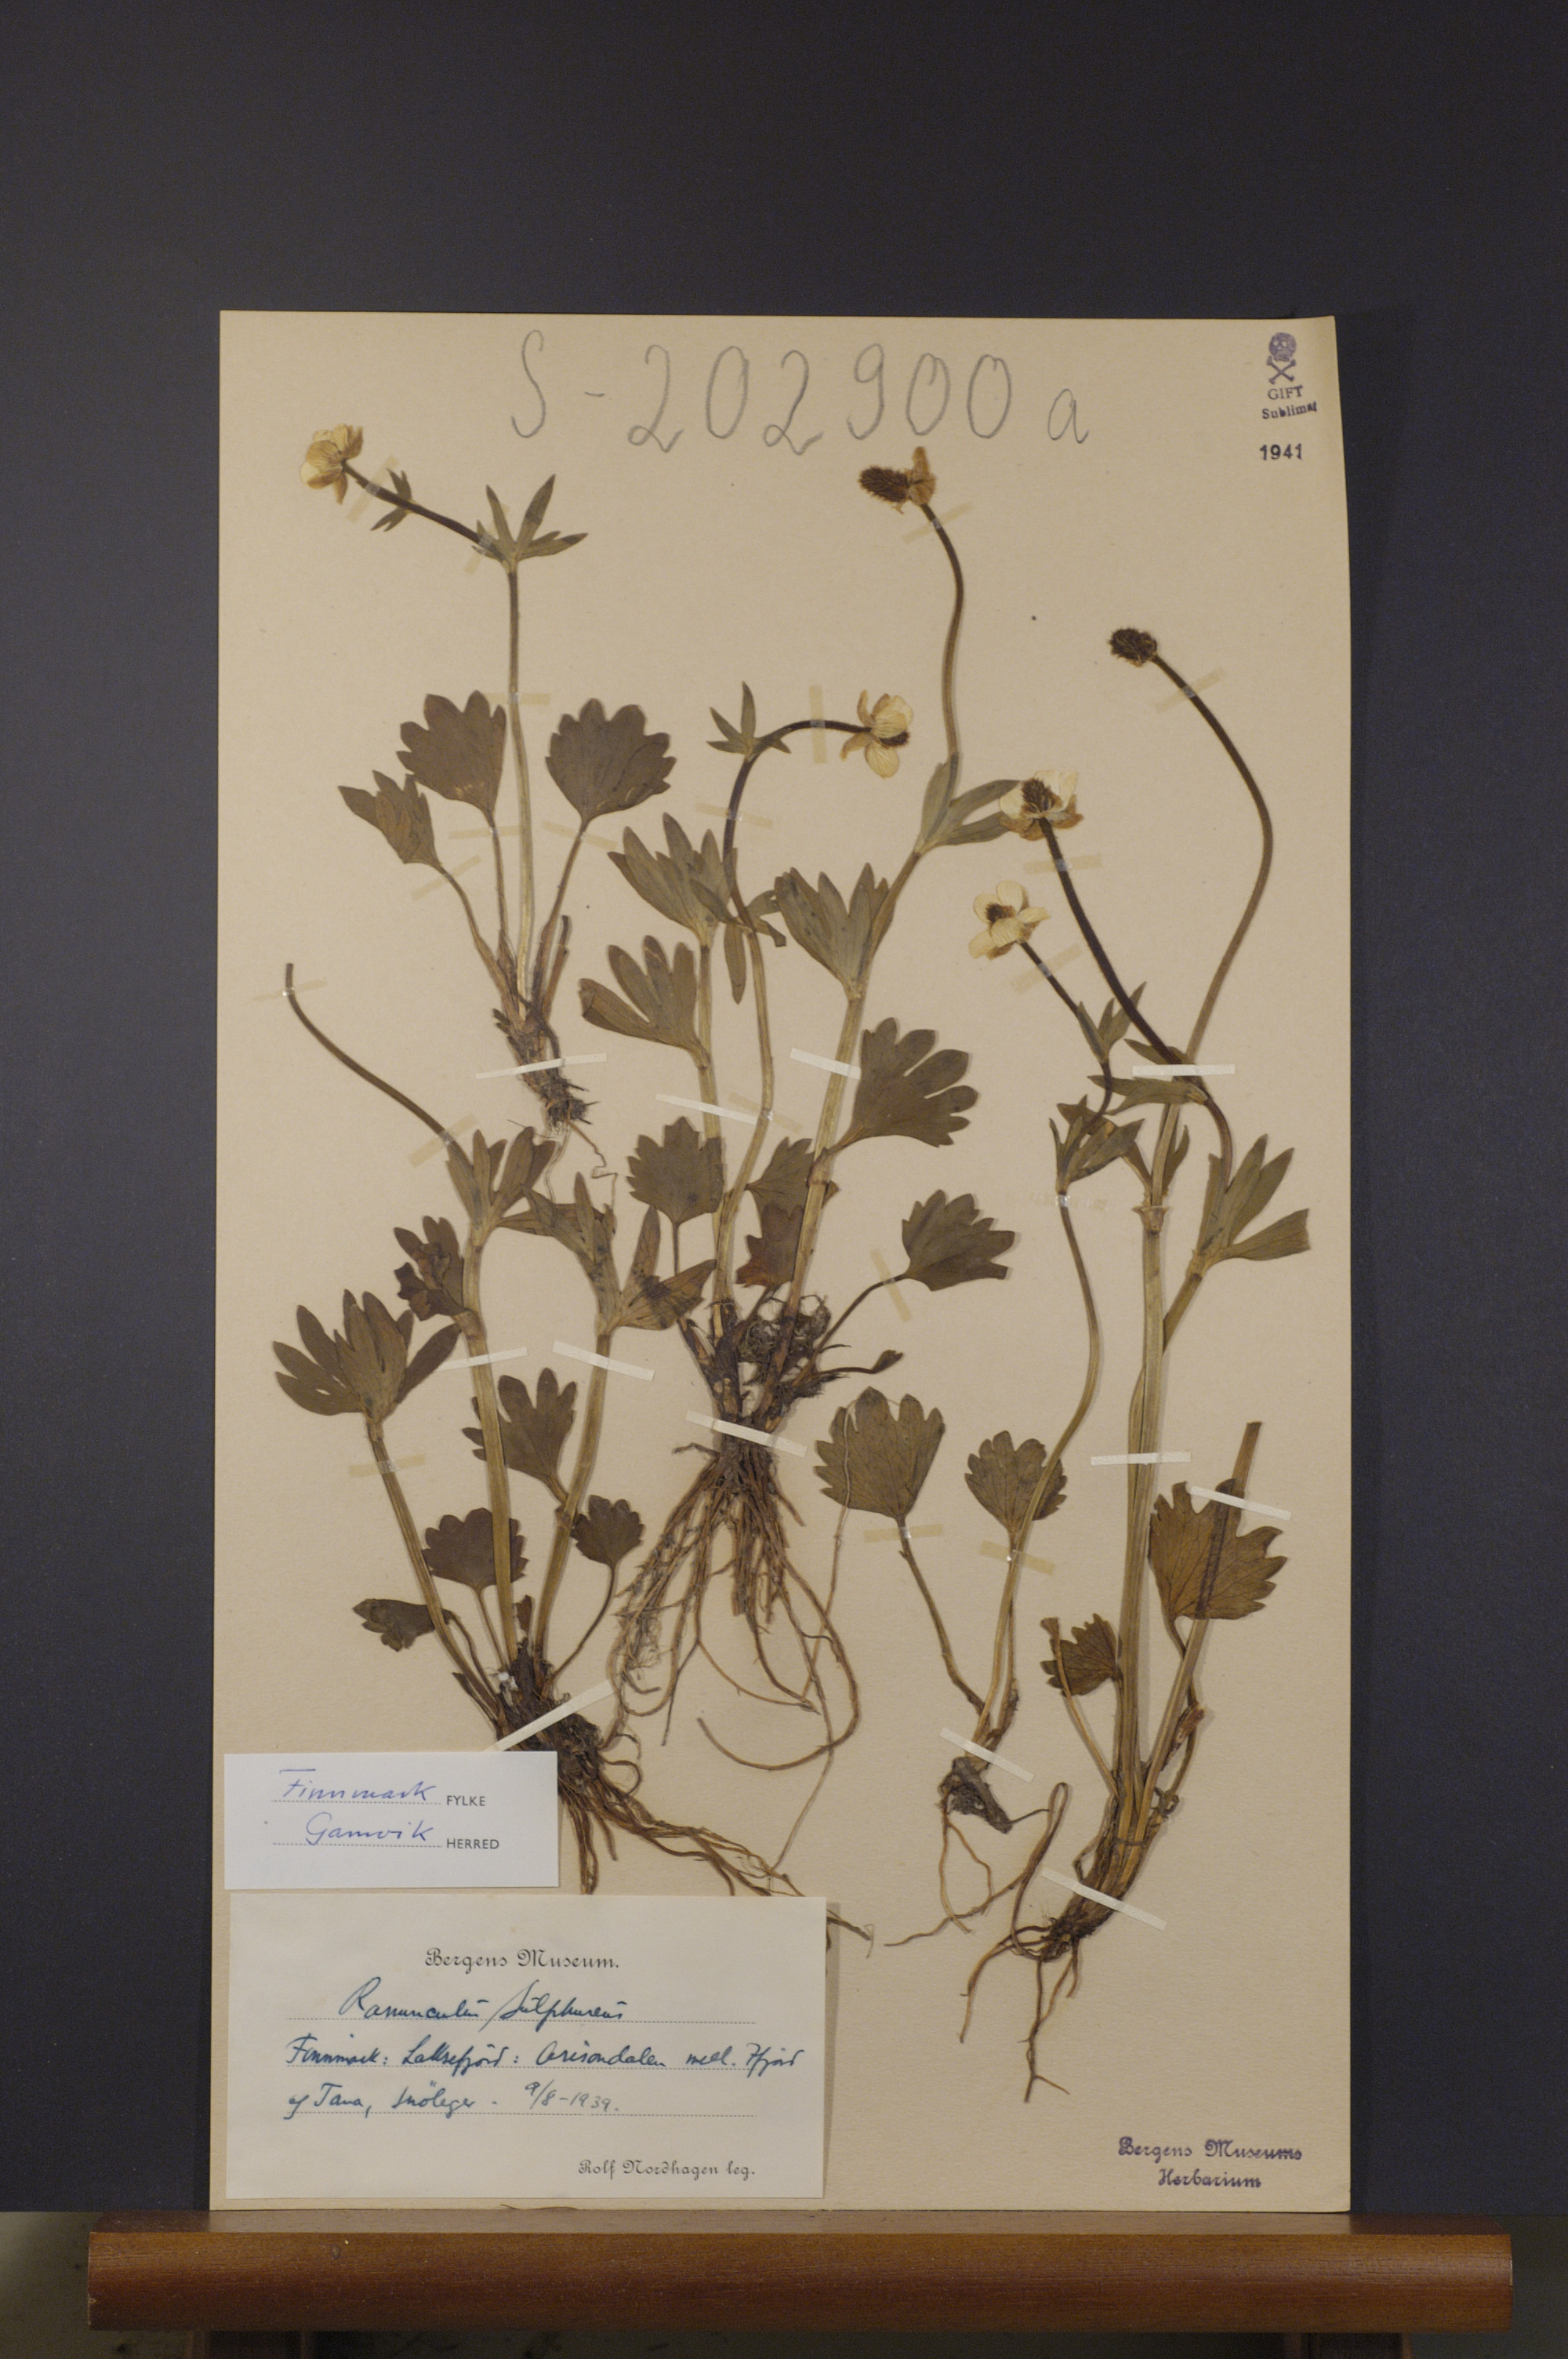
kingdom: Plantae
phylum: Tracheophyta
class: Magnoliopsida
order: Ranunculales
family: Ranunculaceae
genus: Ranunculus
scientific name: Ranunculus sulphureus
